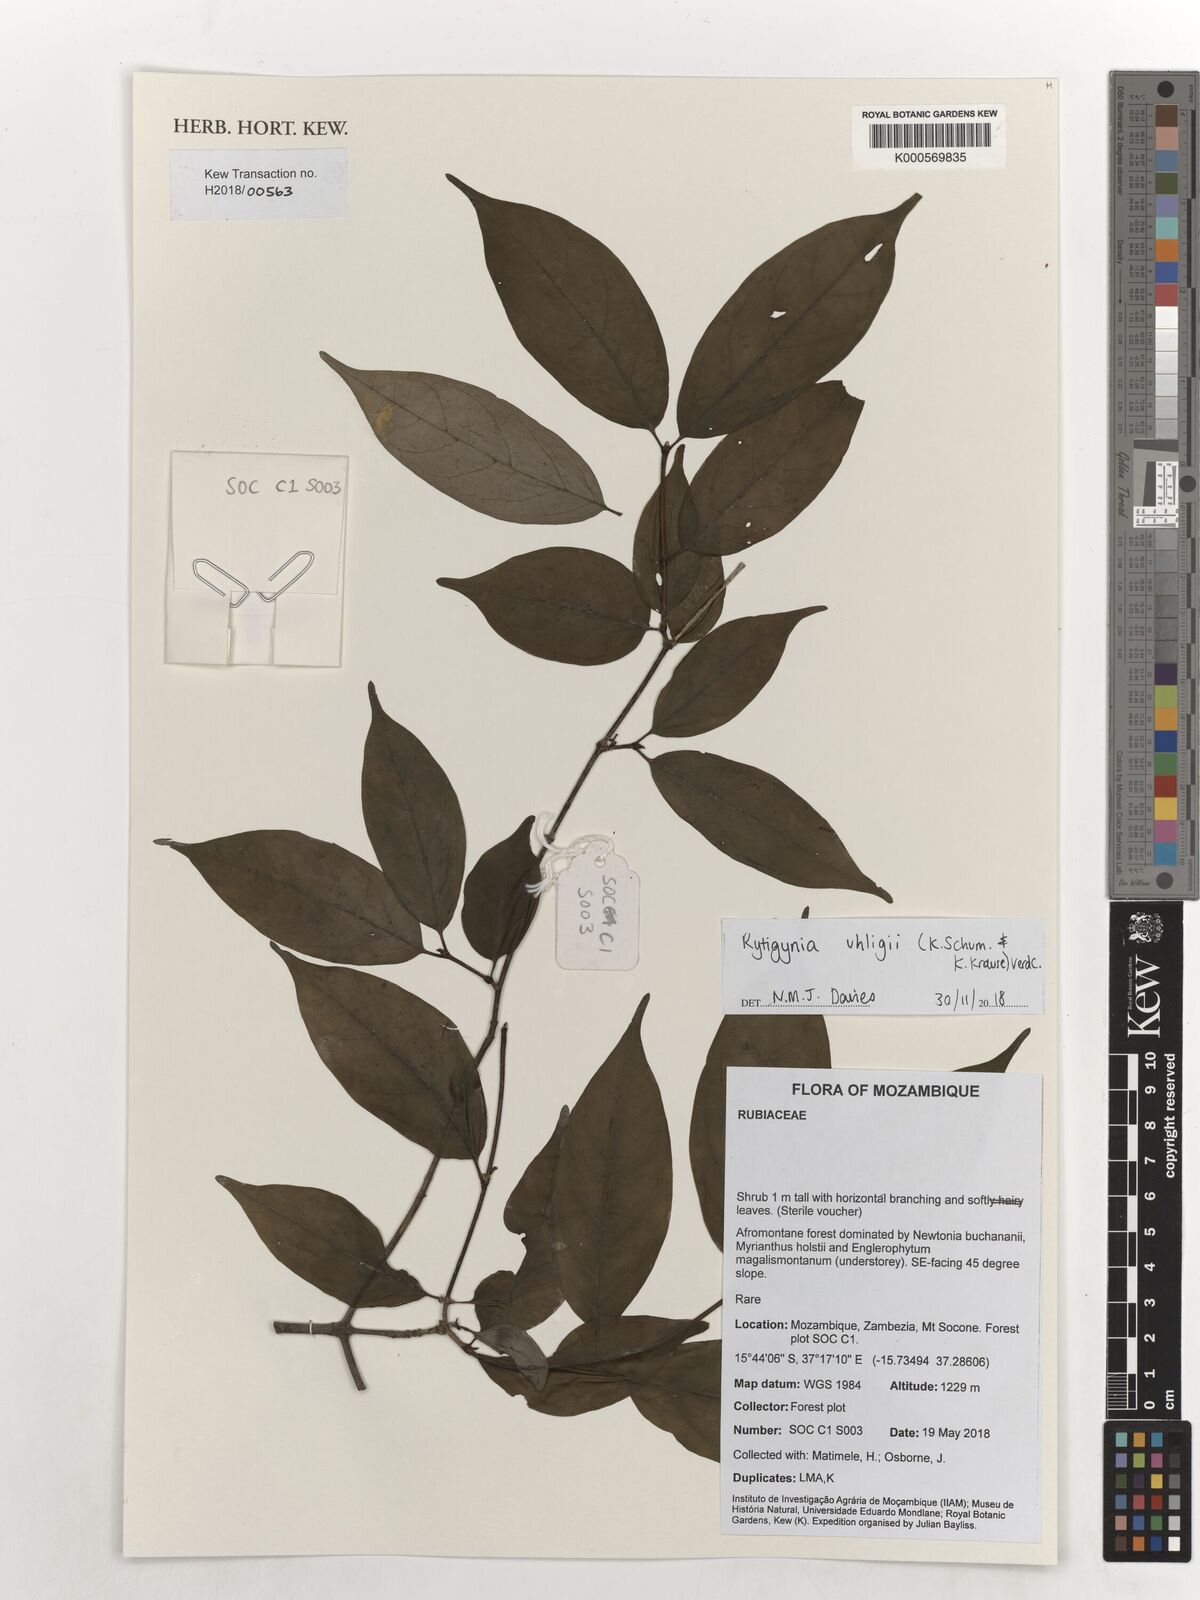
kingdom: Plantae
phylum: Tracheophyta
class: Magnoliopsida
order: Gentianales
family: Rubiaceae
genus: Rytigynia
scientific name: Rytigynia uhligii
